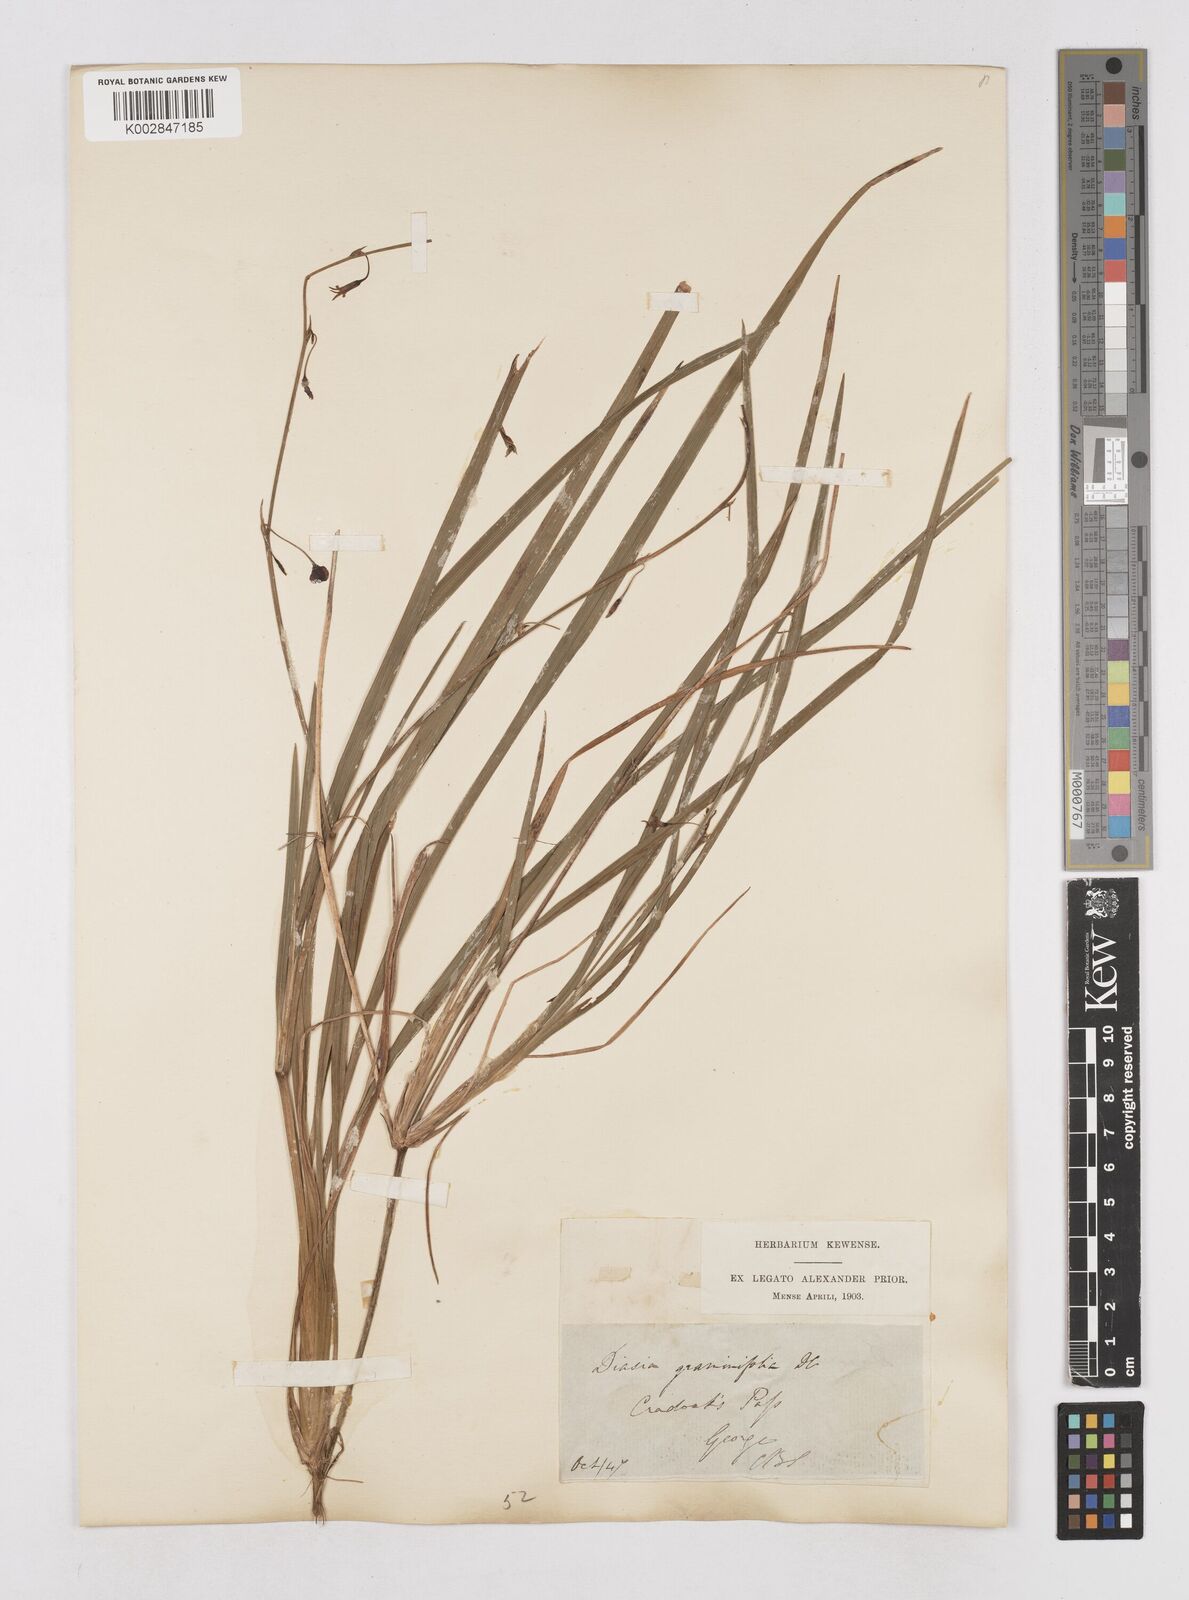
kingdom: Plantae
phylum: Tracheophyta
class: Liliopsida
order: Asparagales
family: Asphodelaceae
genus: Caesia
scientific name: Caesia contorta
